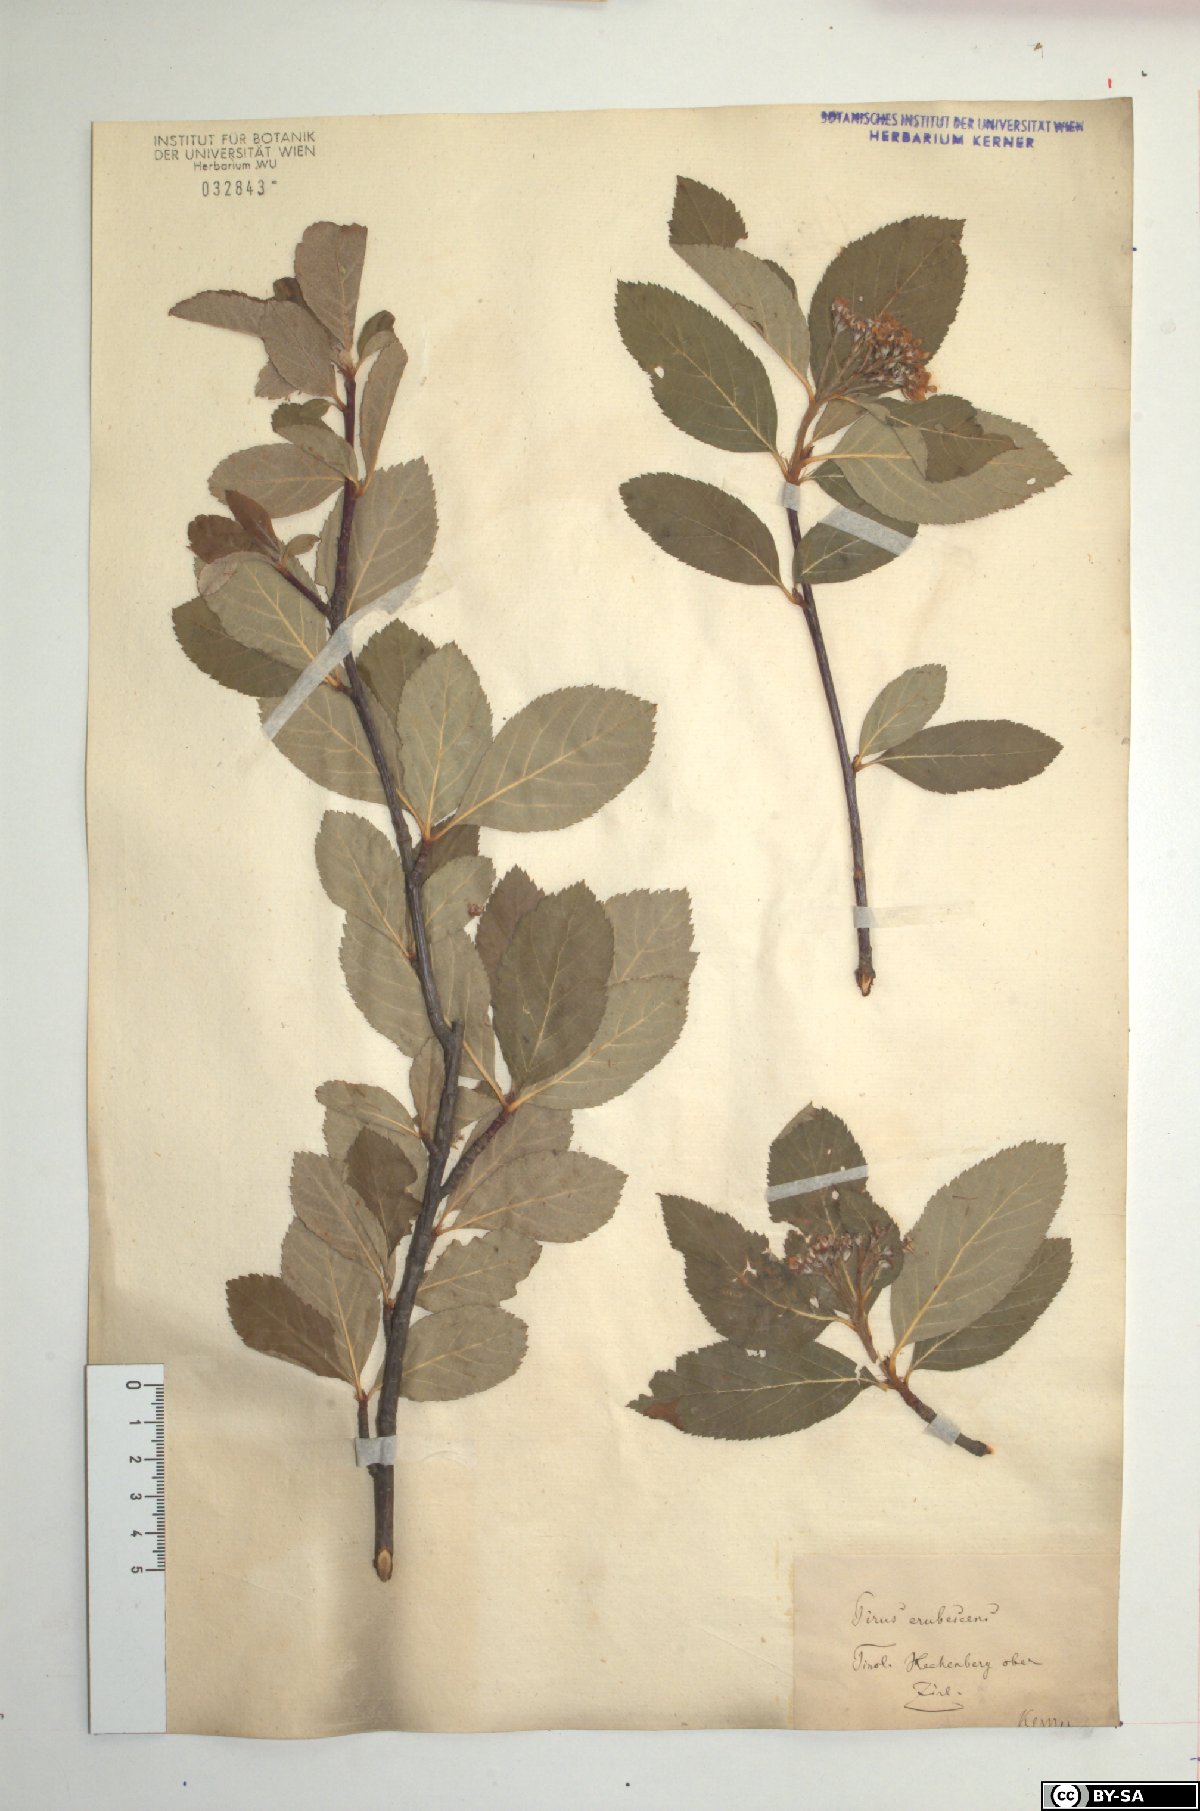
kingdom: Plantae
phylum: Tracheophyta
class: Magnoliopsida
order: Rosales
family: Rosaceae
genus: Majovskya
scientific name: Majovskya sudetica
